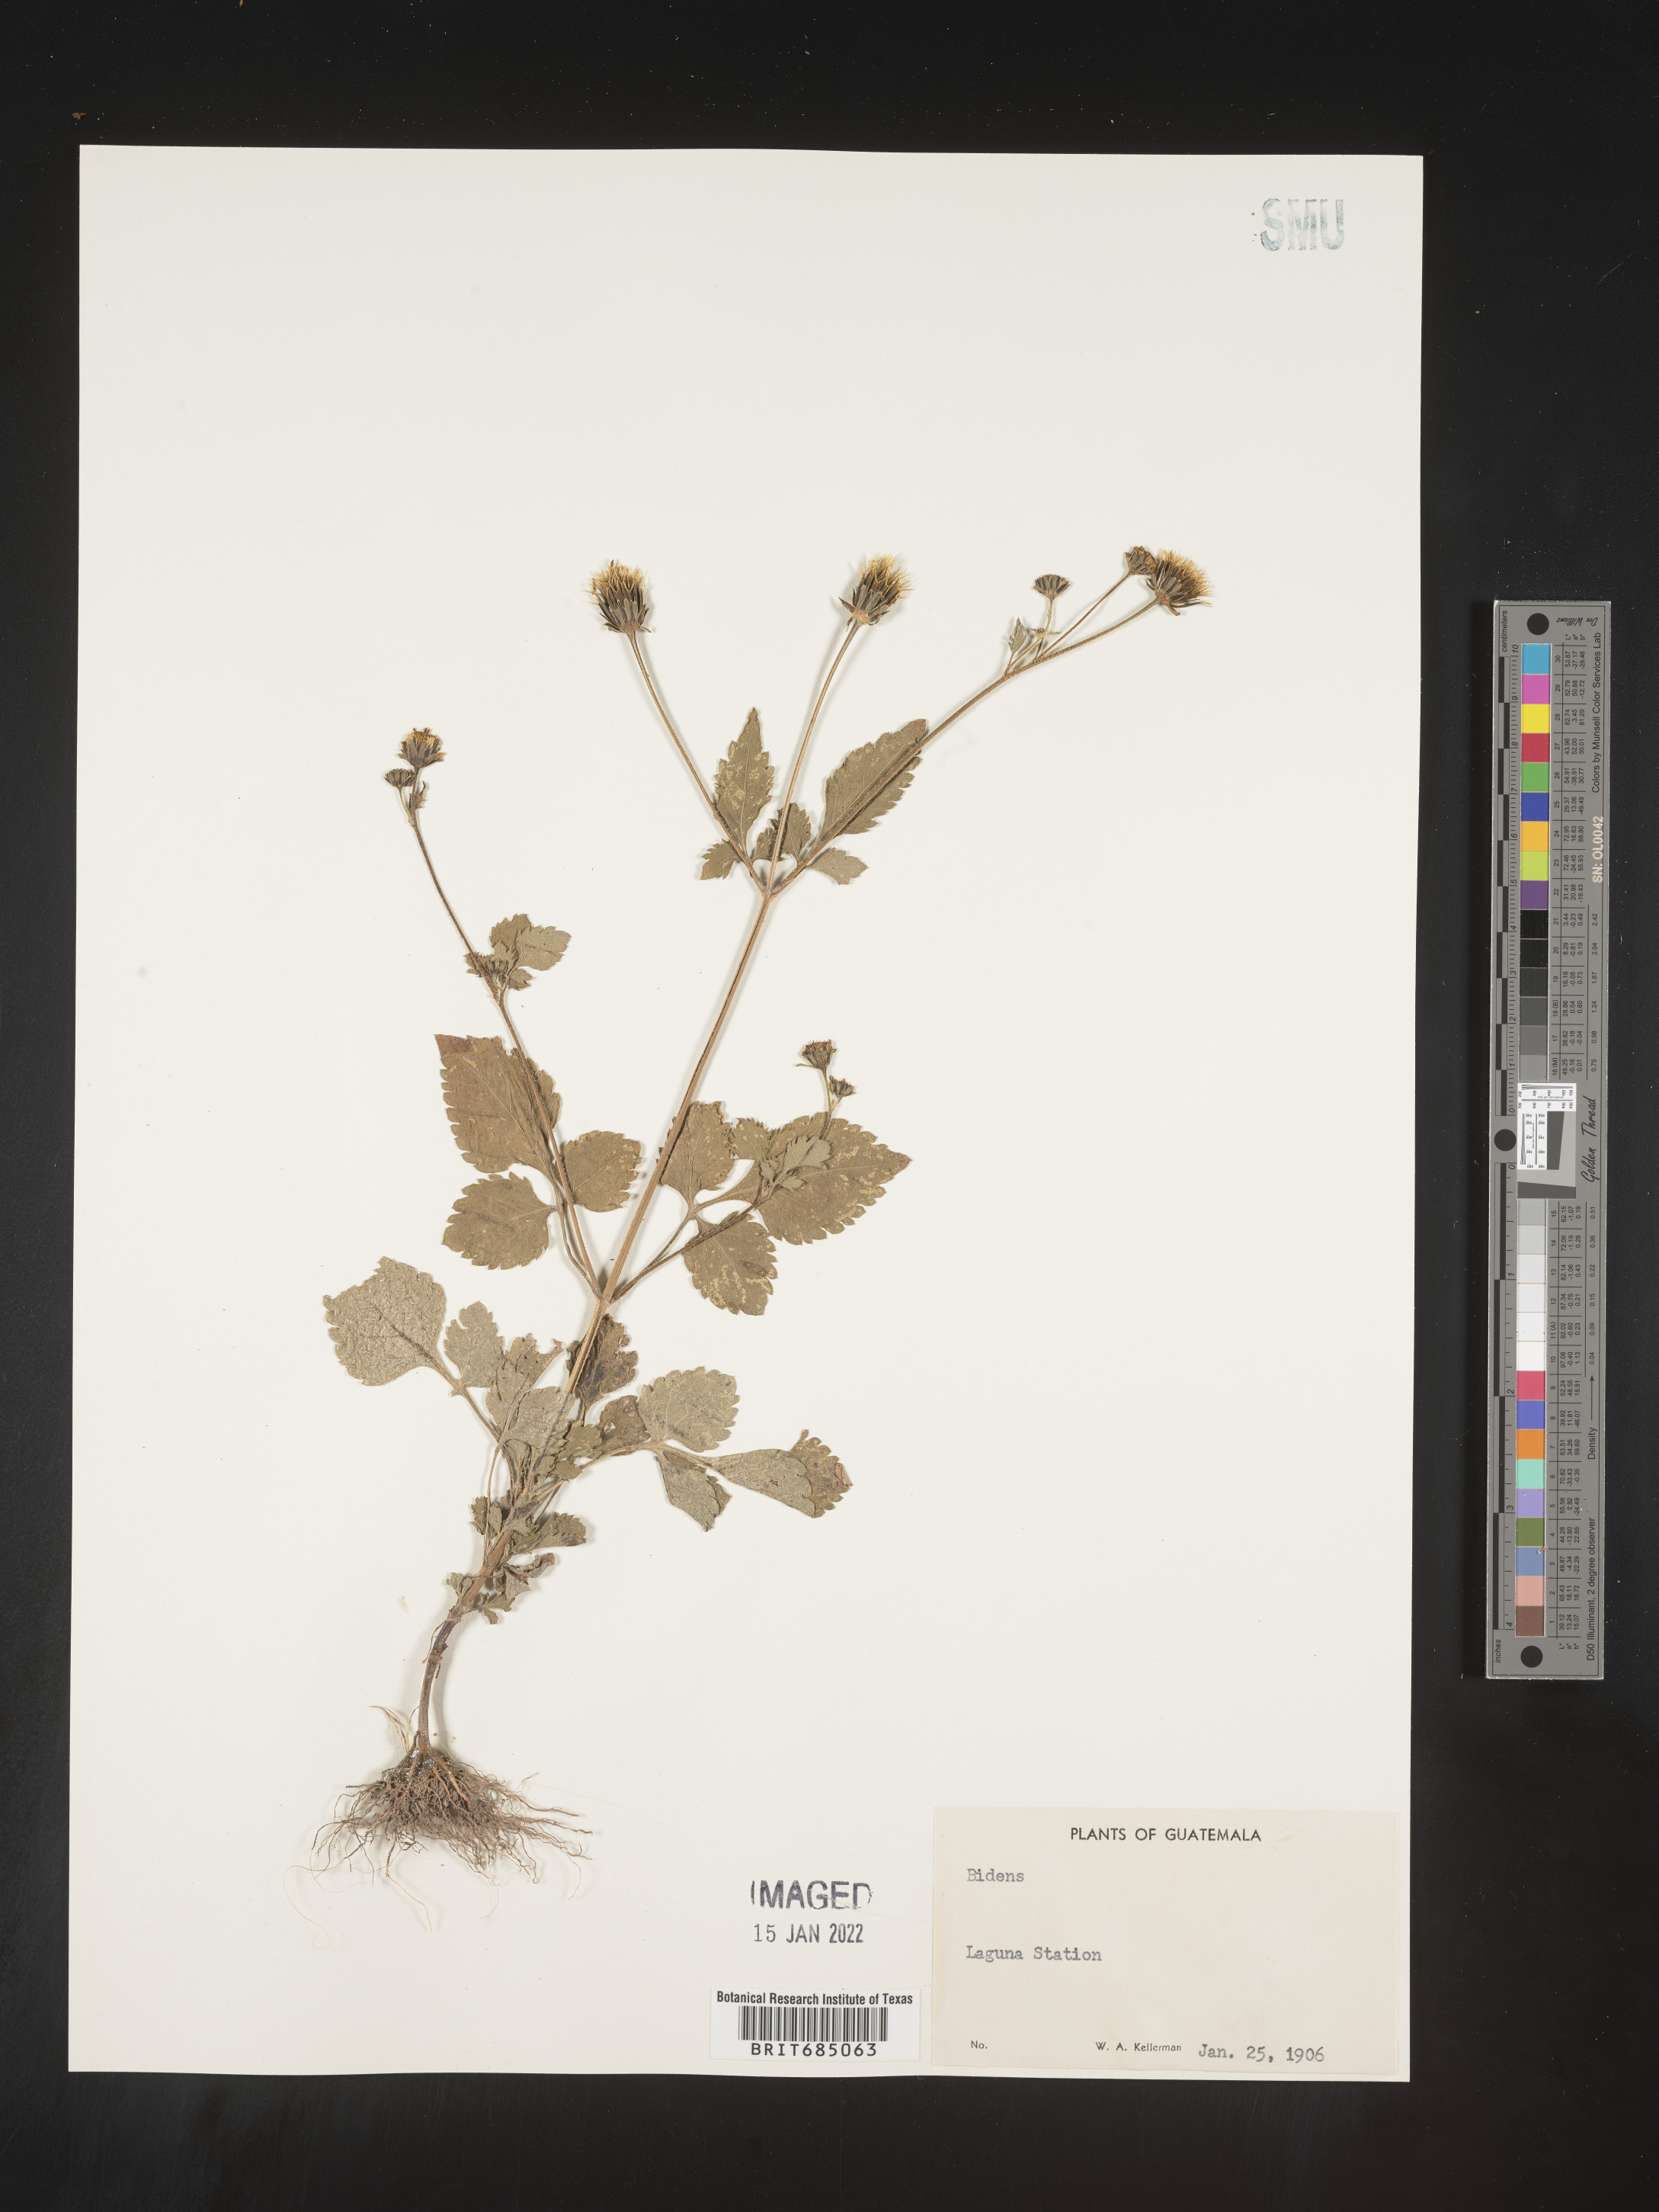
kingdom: Plantae
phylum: Tracheophyta
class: Magnoliopsida
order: Asterales
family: Asteraceae
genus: Bidens
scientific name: Bidens
